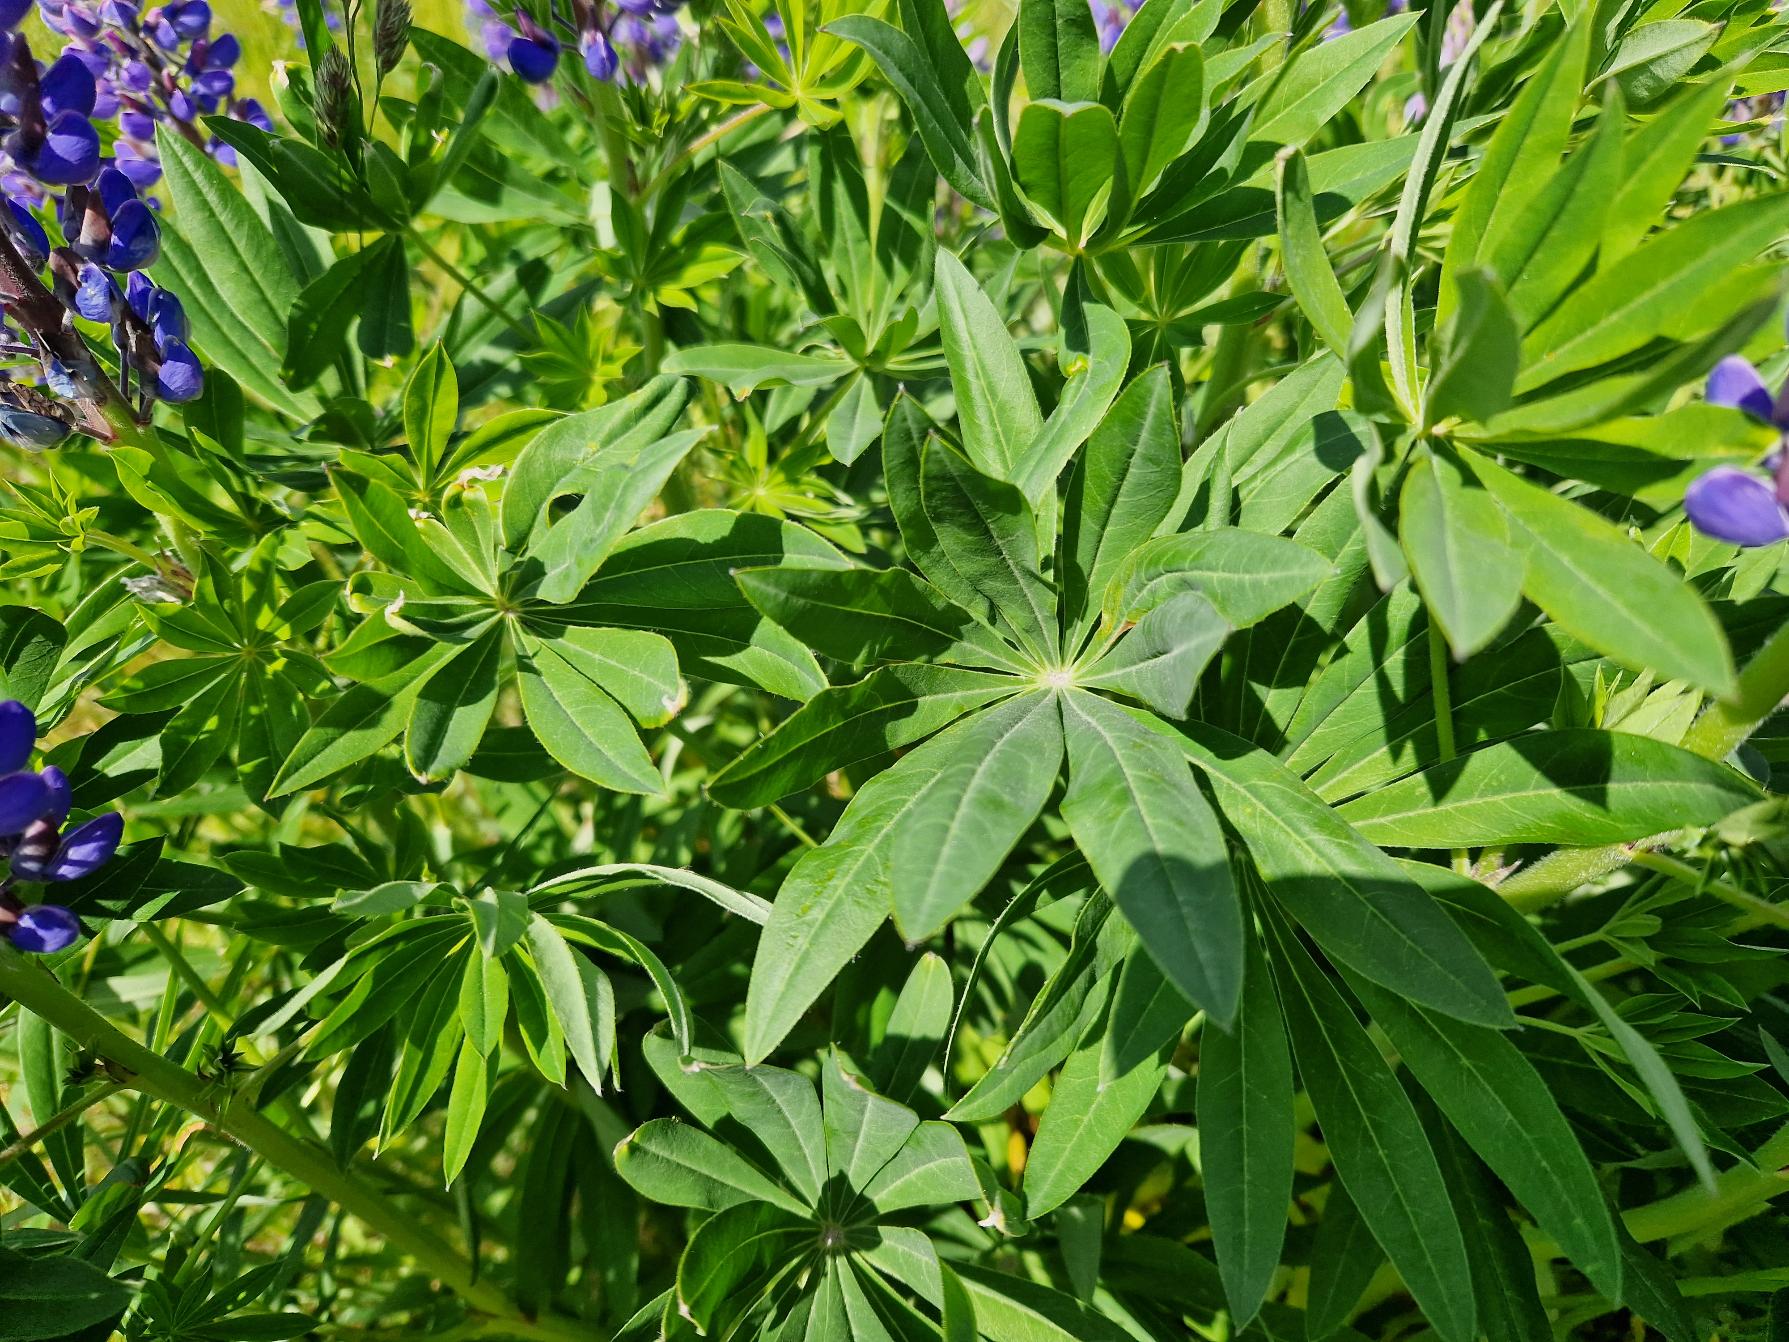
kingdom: Plantae
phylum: Tracheophyta
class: Magnoliopsida
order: Fabales
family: Fabaceae
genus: Lupinus
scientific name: Lupinus polyphyllus
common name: Mangebladet lupin
